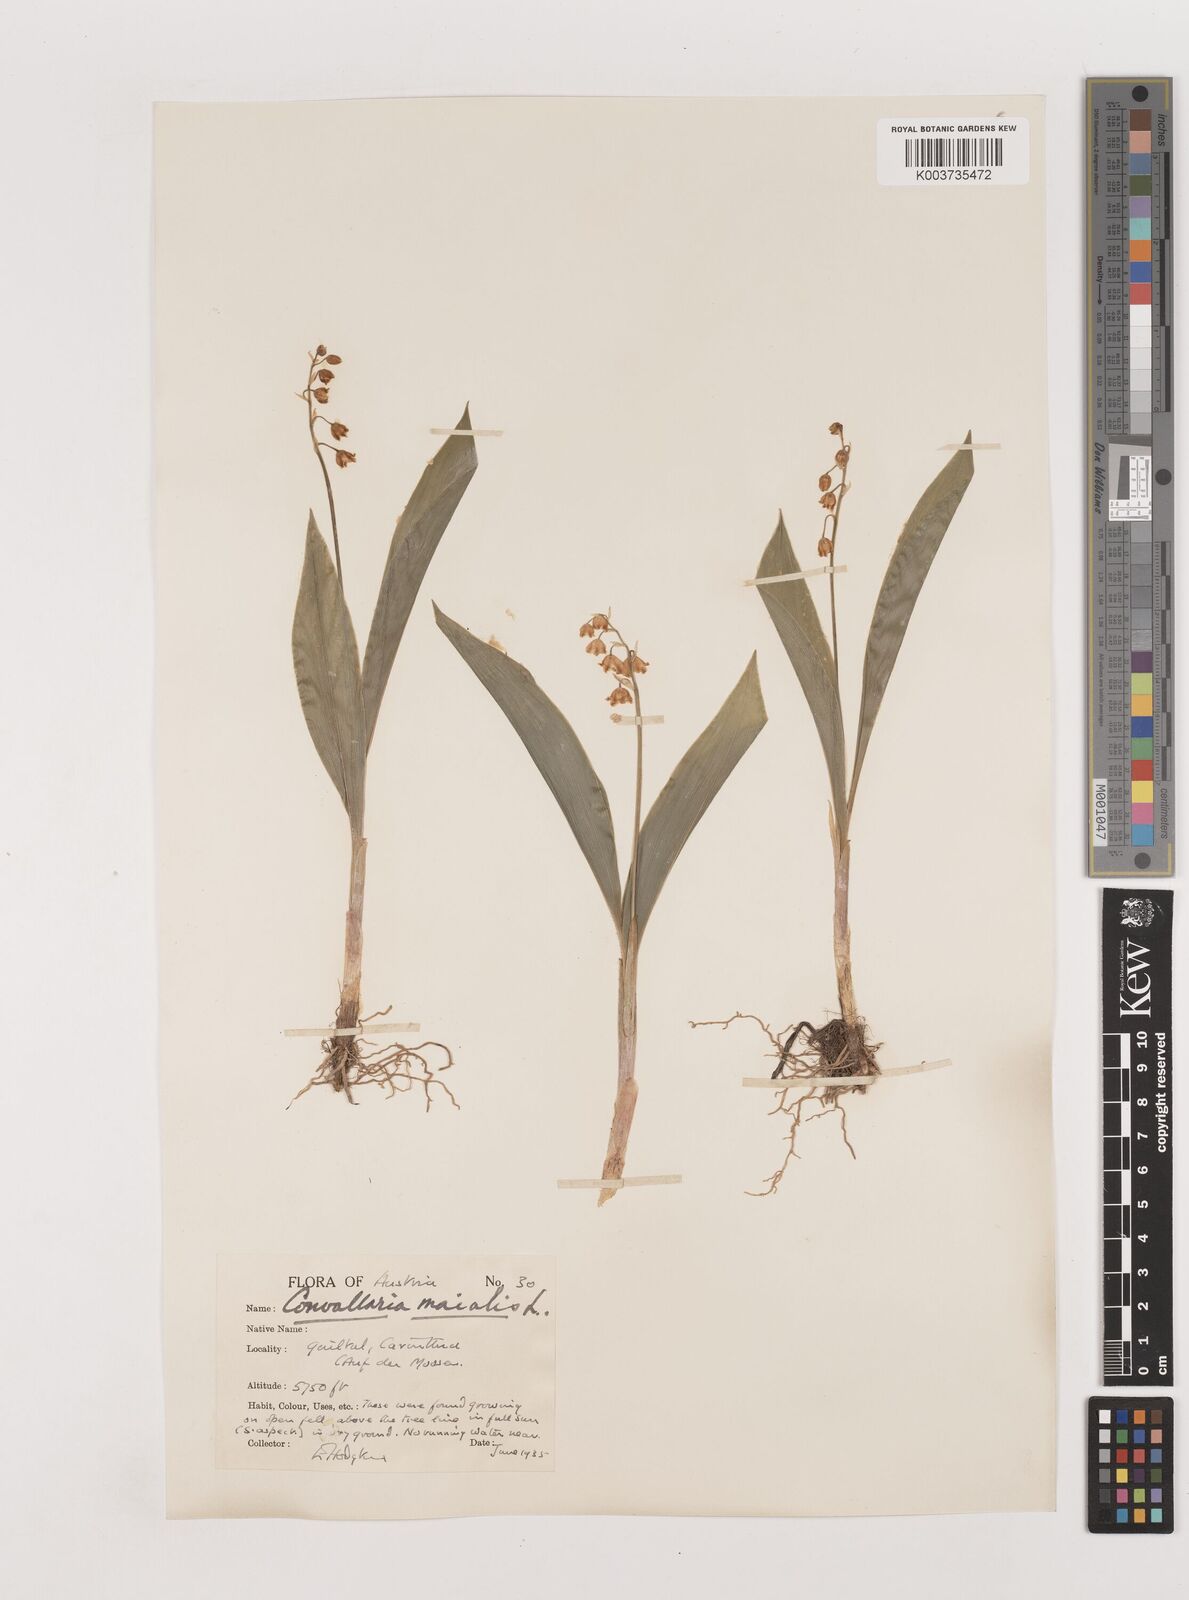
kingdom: Plantae
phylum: Tracheophyta
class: Liliopsida
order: Asparagales
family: Asparagaceae
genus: Convallaria
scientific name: Convallaria majalis
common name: Lily-of-the-valley
